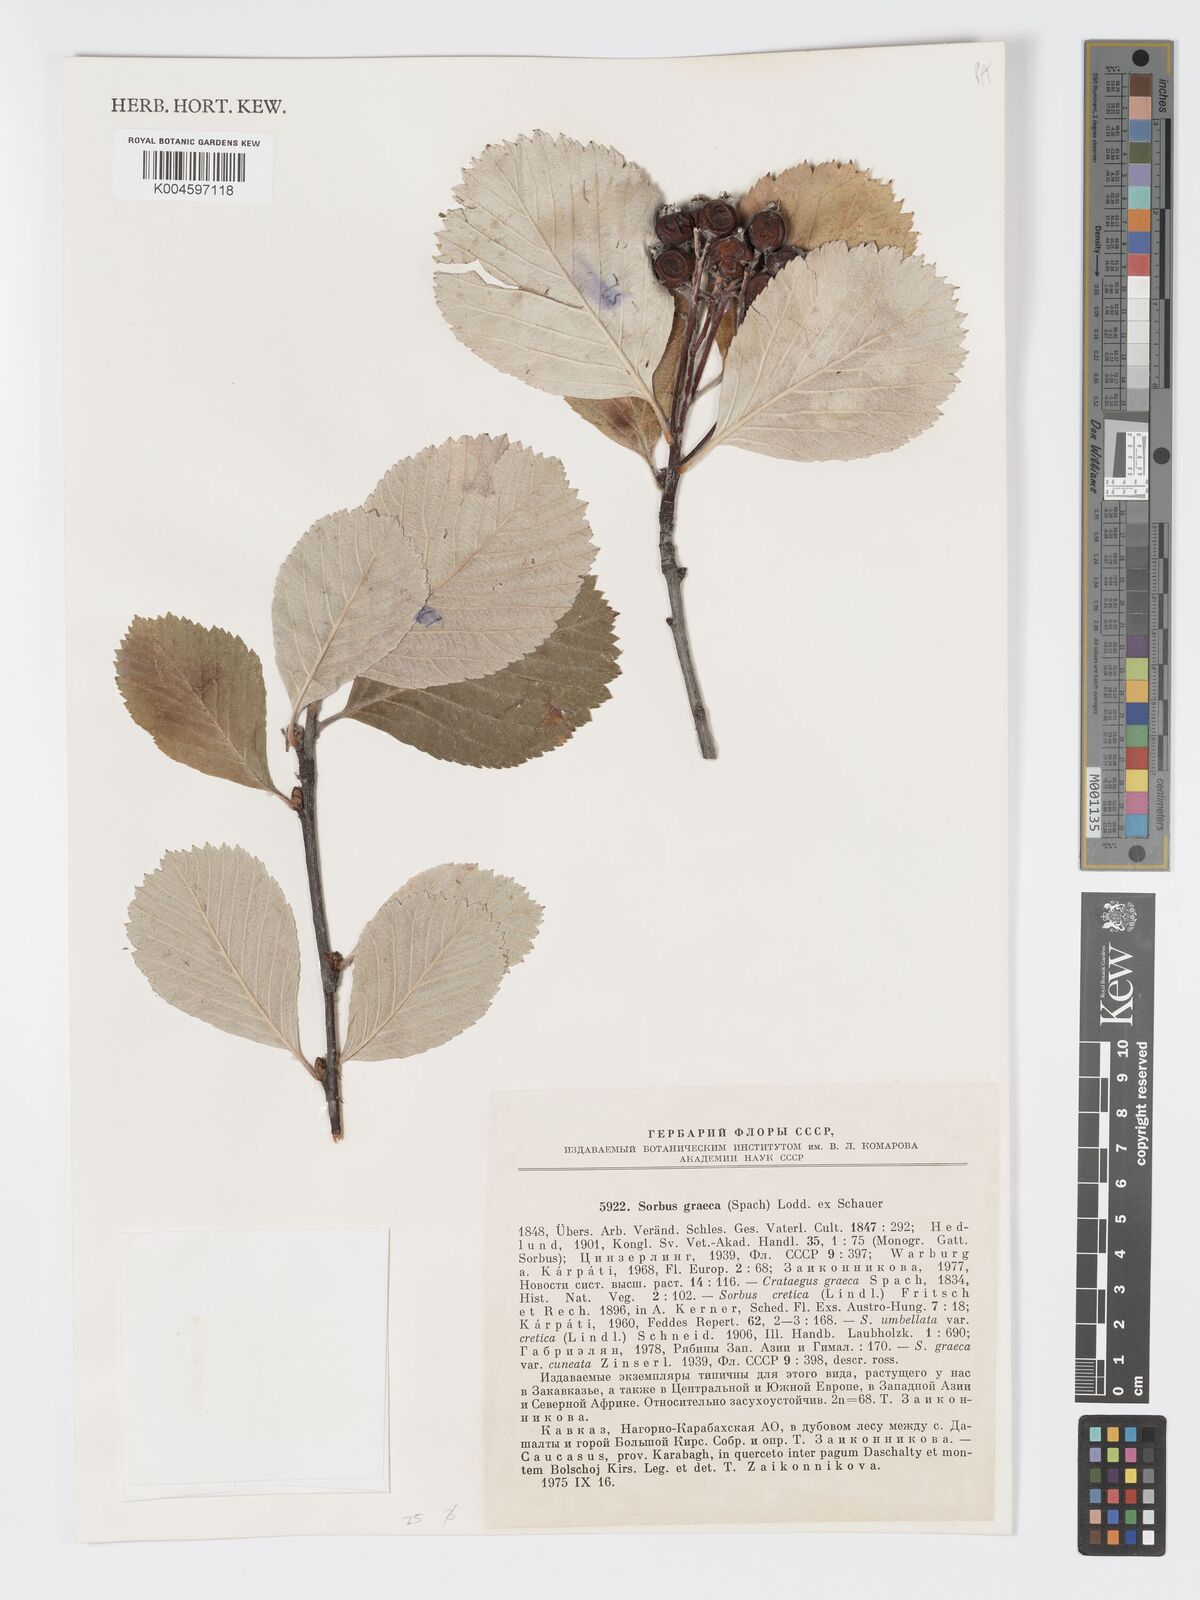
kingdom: Plantae
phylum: Tracheophyta
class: Magnoliopsida
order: Rosales
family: Rosaceae
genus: Aria
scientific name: Aria graeca
